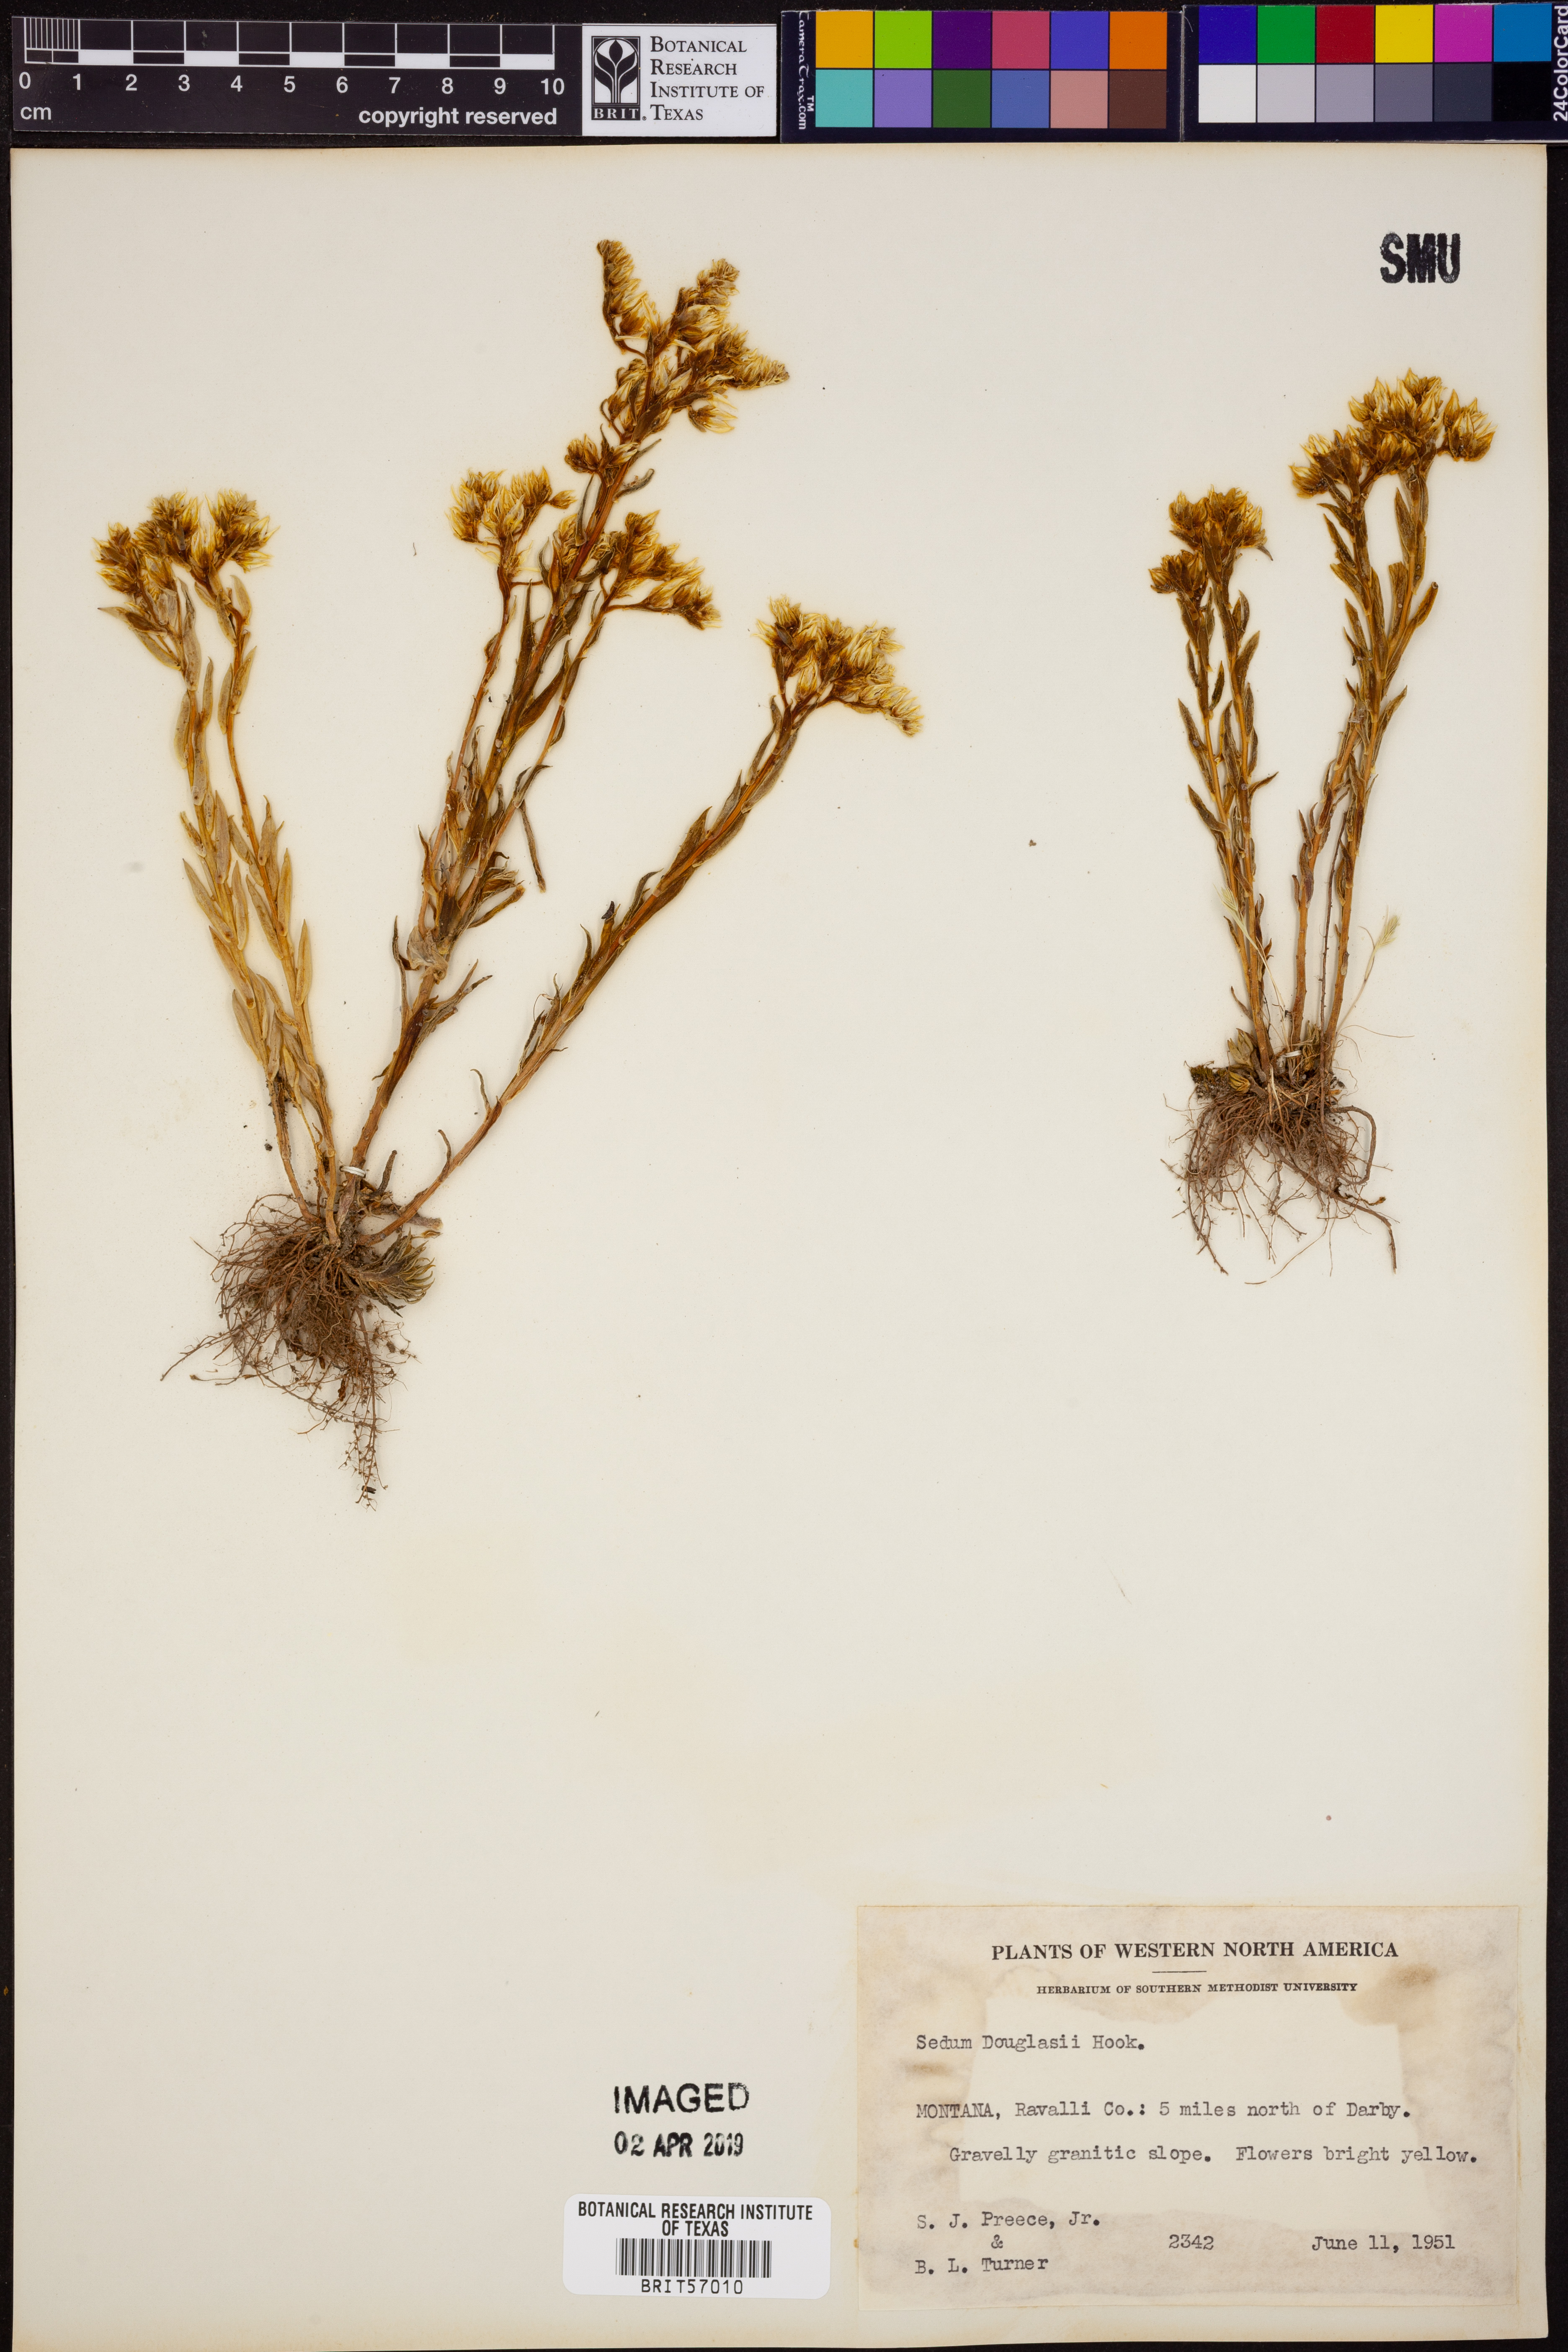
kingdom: Plantae
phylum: Tracheophyta
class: Magnoliopsida
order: Saxifragales
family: Crassulaceae
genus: Sedum
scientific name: Sedum stenopetalum
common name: Narrow-petaled stonecrop
